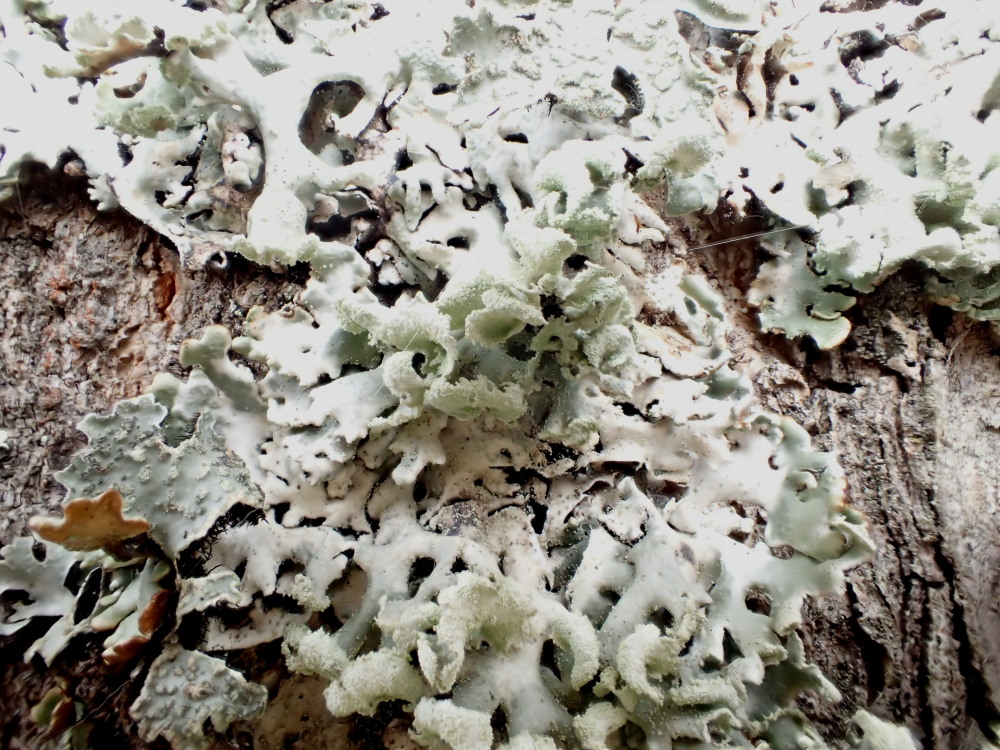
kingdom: Fungi
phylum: Ascomycota
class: Lecanoromycetes
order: Lecanorales
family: Parmeliaceae
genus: Hypogymnia
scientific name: Hypogymnia physodes
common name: almindelig kvistlav
